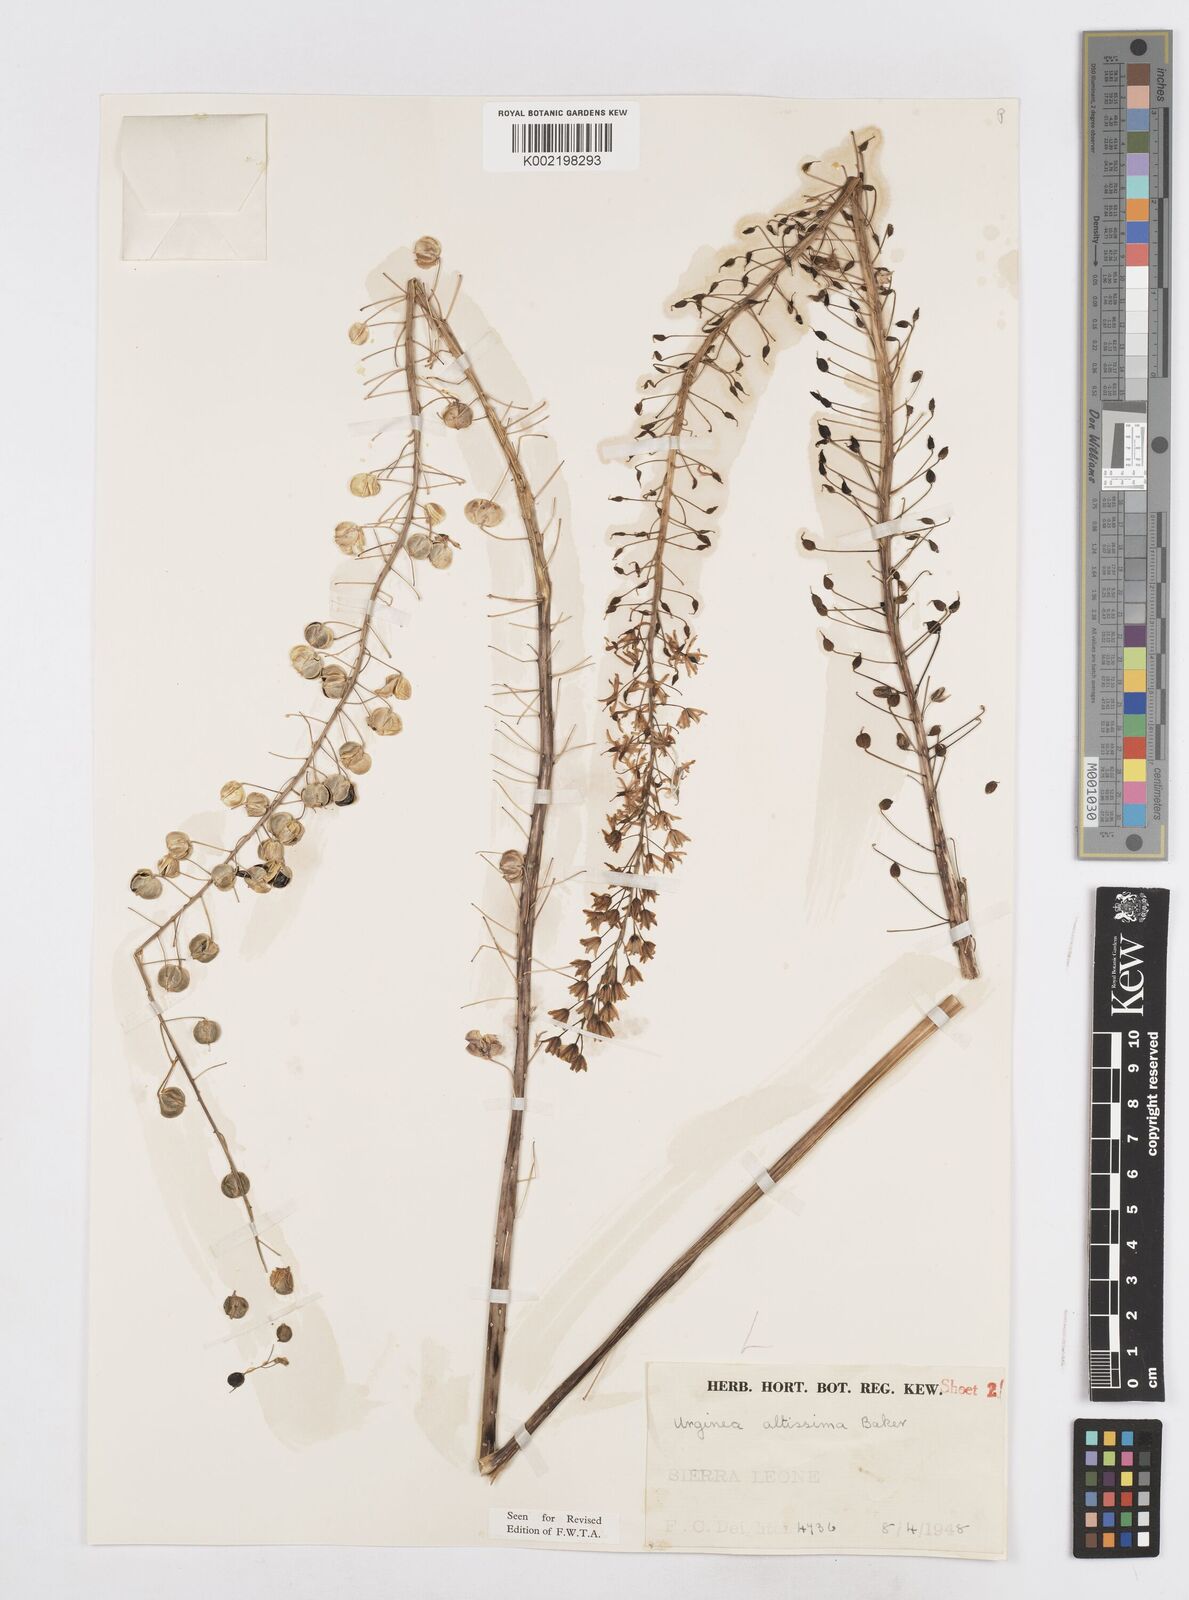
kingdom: Plantae
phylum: Tracheophyta
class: Liliopsida
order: Asparagales
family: Asparagaceae
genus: Drimia
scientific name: Drimia altissima
